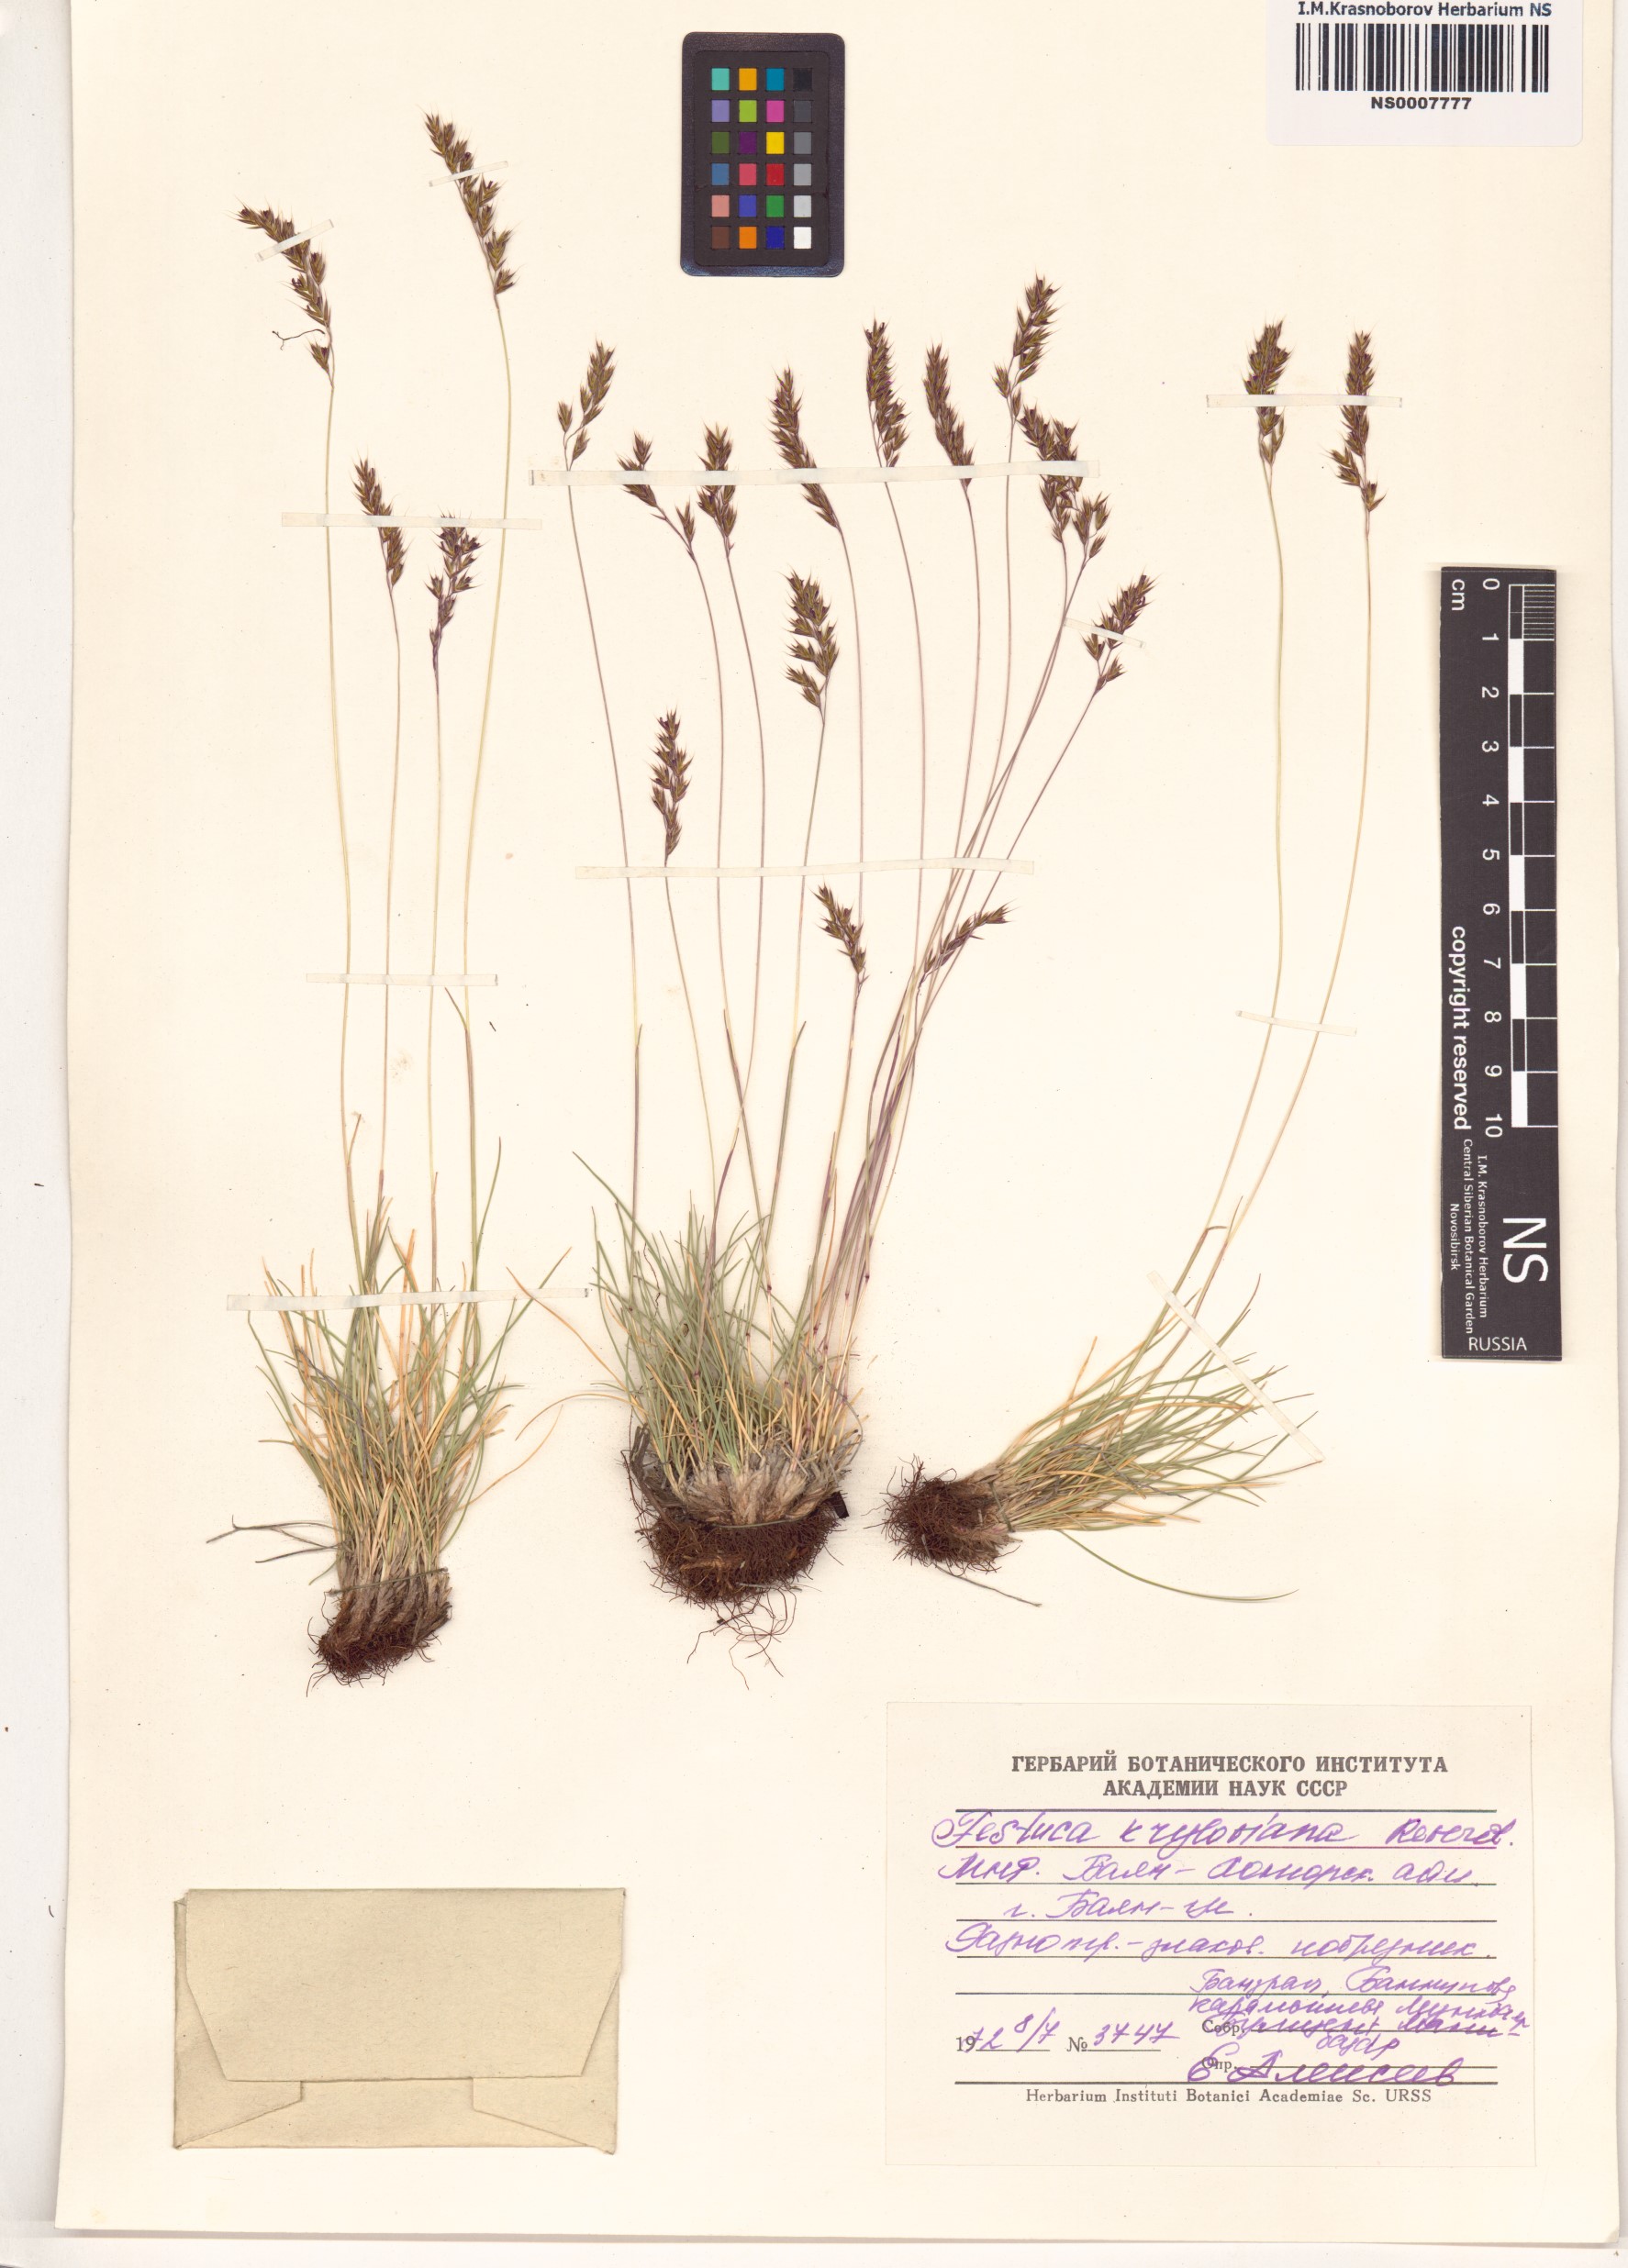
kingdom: Plantae
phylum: Tracheophyta
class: Liliopsida
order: Poales
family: Poaceae
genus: Festuca
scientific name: Festuca kryloviana
